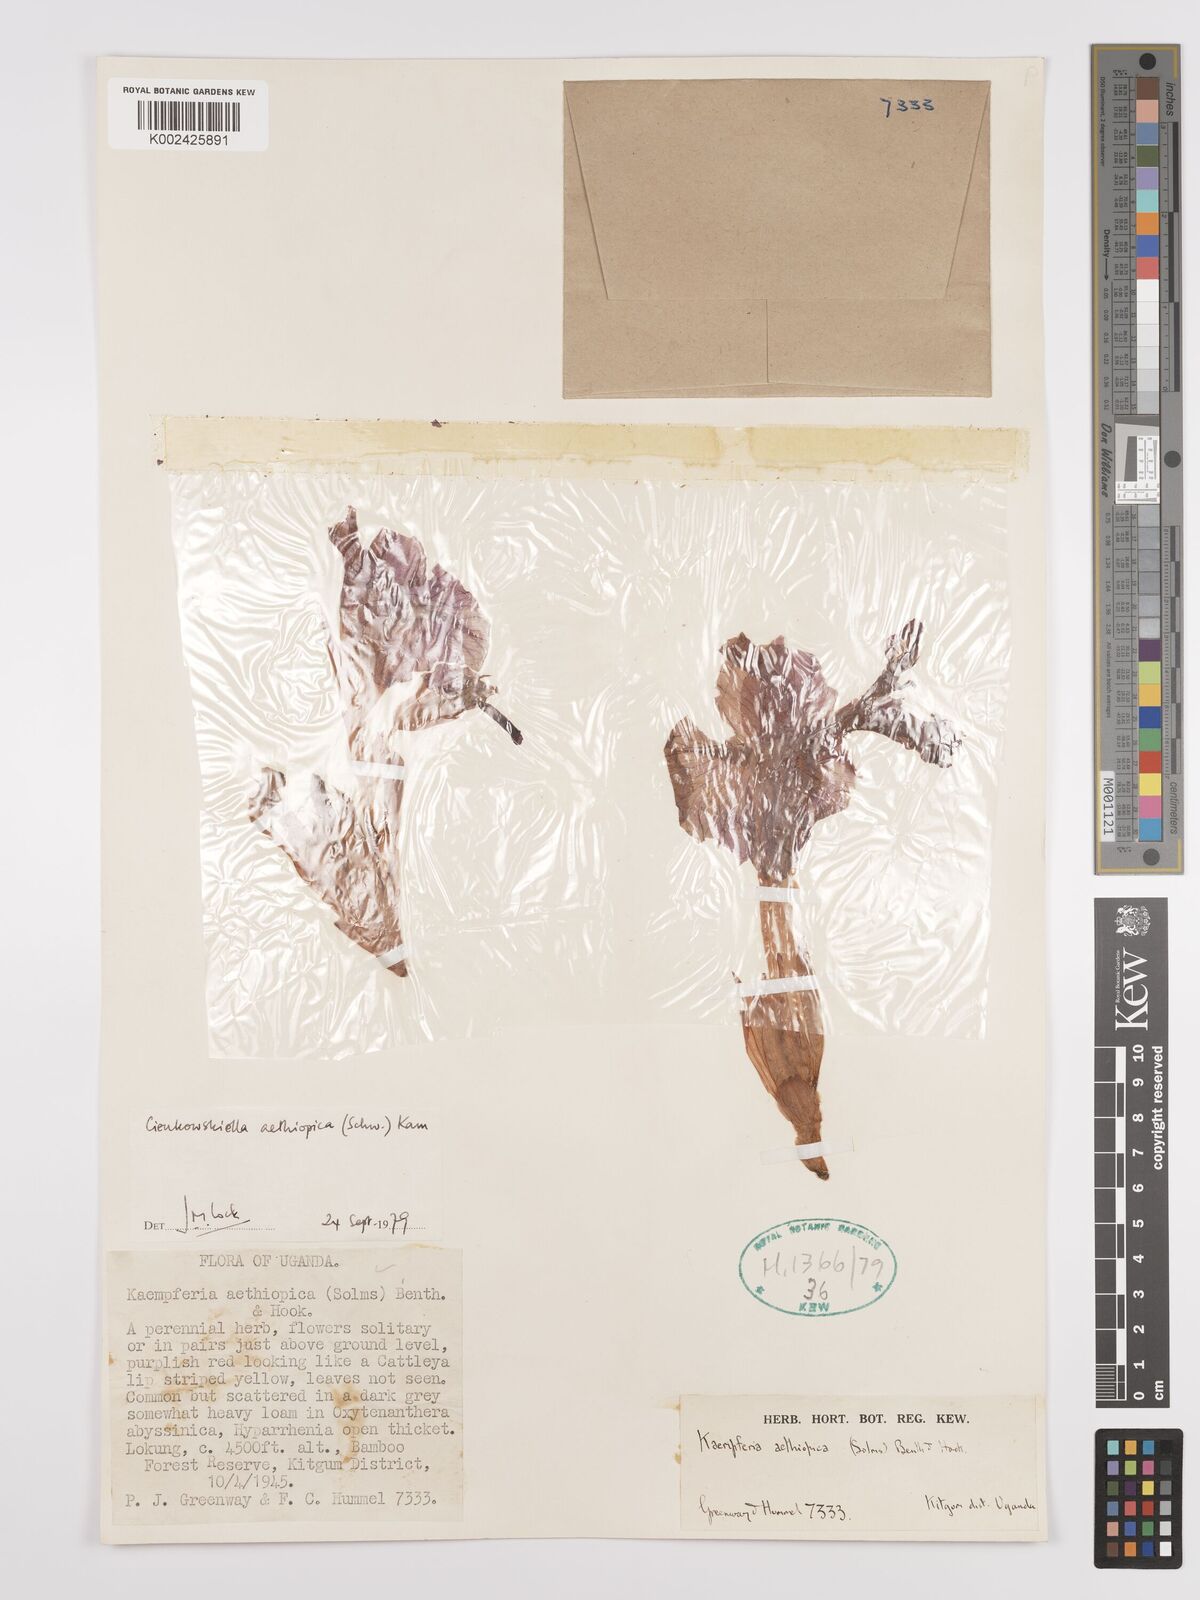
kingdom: Plantae
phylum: Tracheophyta
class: Liliopsida
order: Zingiberales
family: Zingiberaceae
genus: Siphonochilus
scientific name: Siphonochilus aethiopicus
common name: African-ginger
